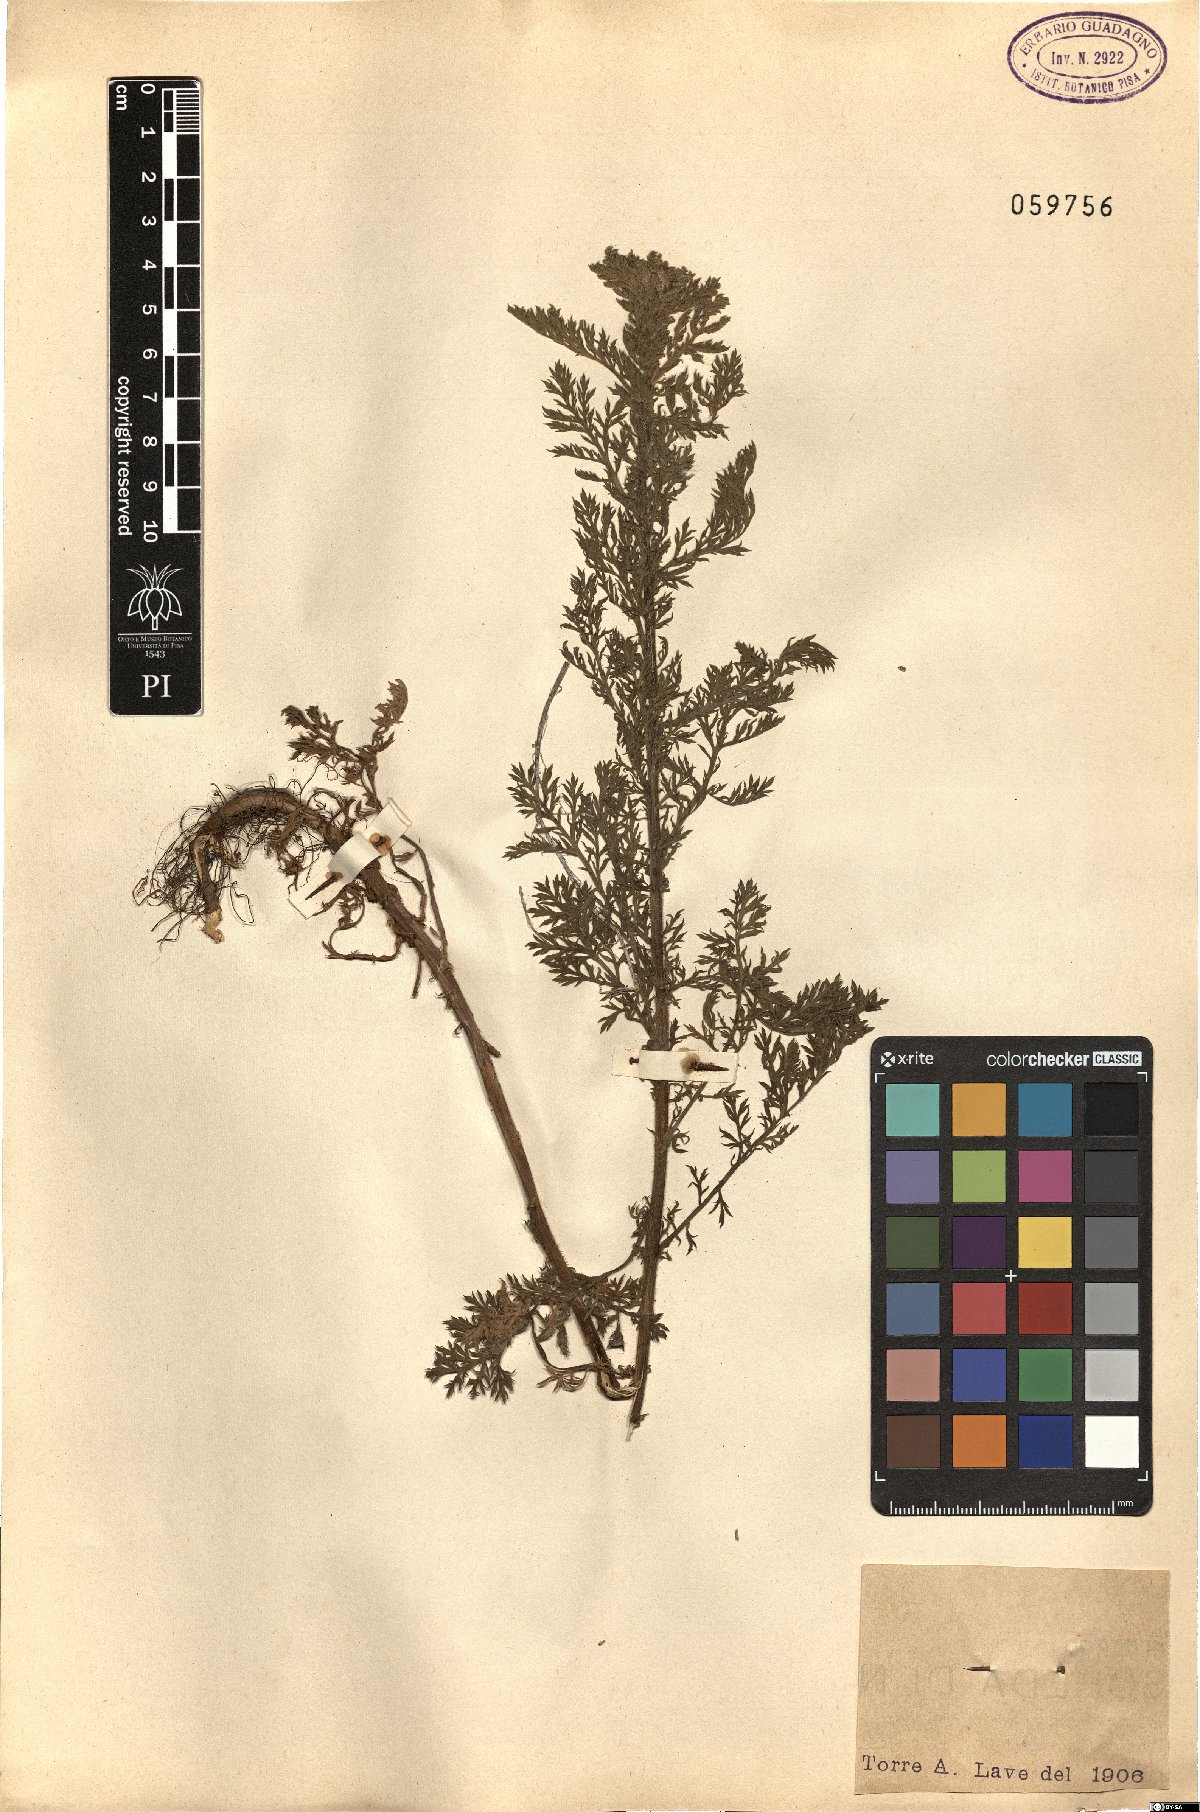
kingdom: Plantae
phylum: Tracheophyta
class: Magnoliopsida
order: Asterales
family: Asteraceae
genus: Achillea
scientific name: Achillea
